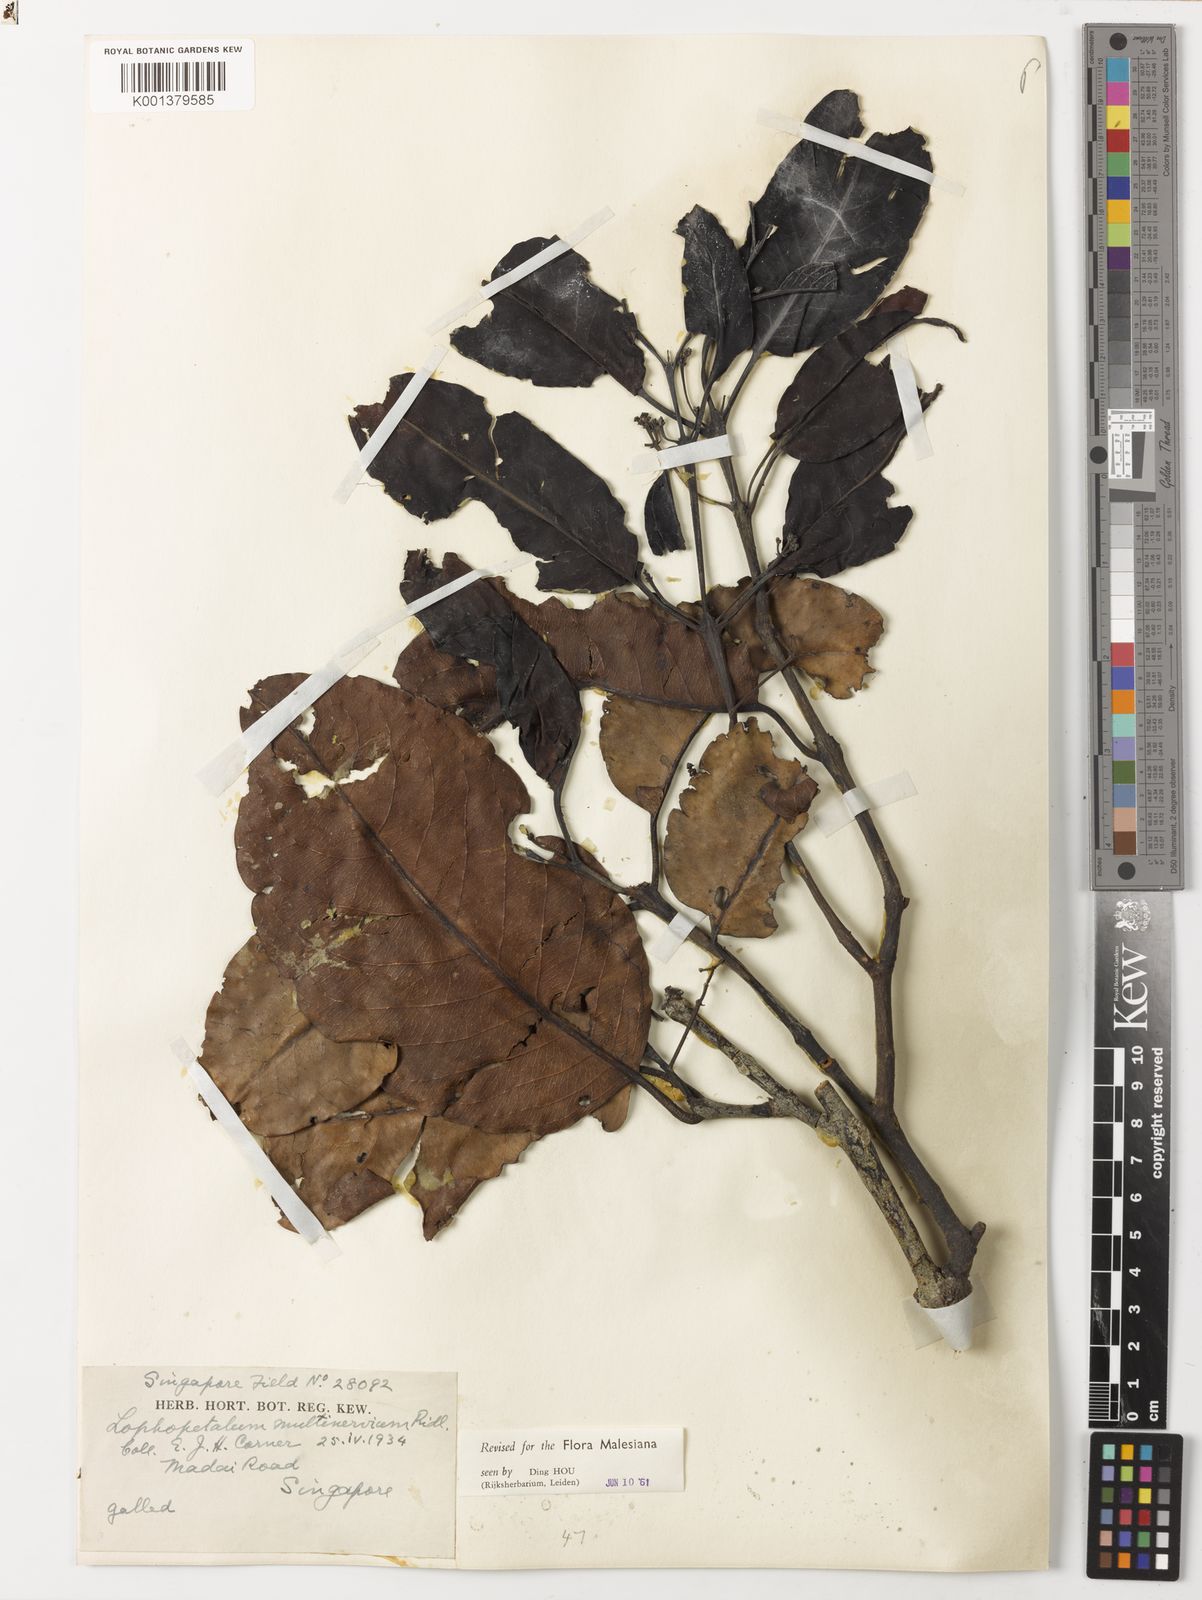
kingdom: Plantae
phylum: Tracheophyta
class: Magnoliopsida
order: Celastrales
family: Celastraceae
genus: Lophopetalum
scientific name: Lophopetalum multinervium
